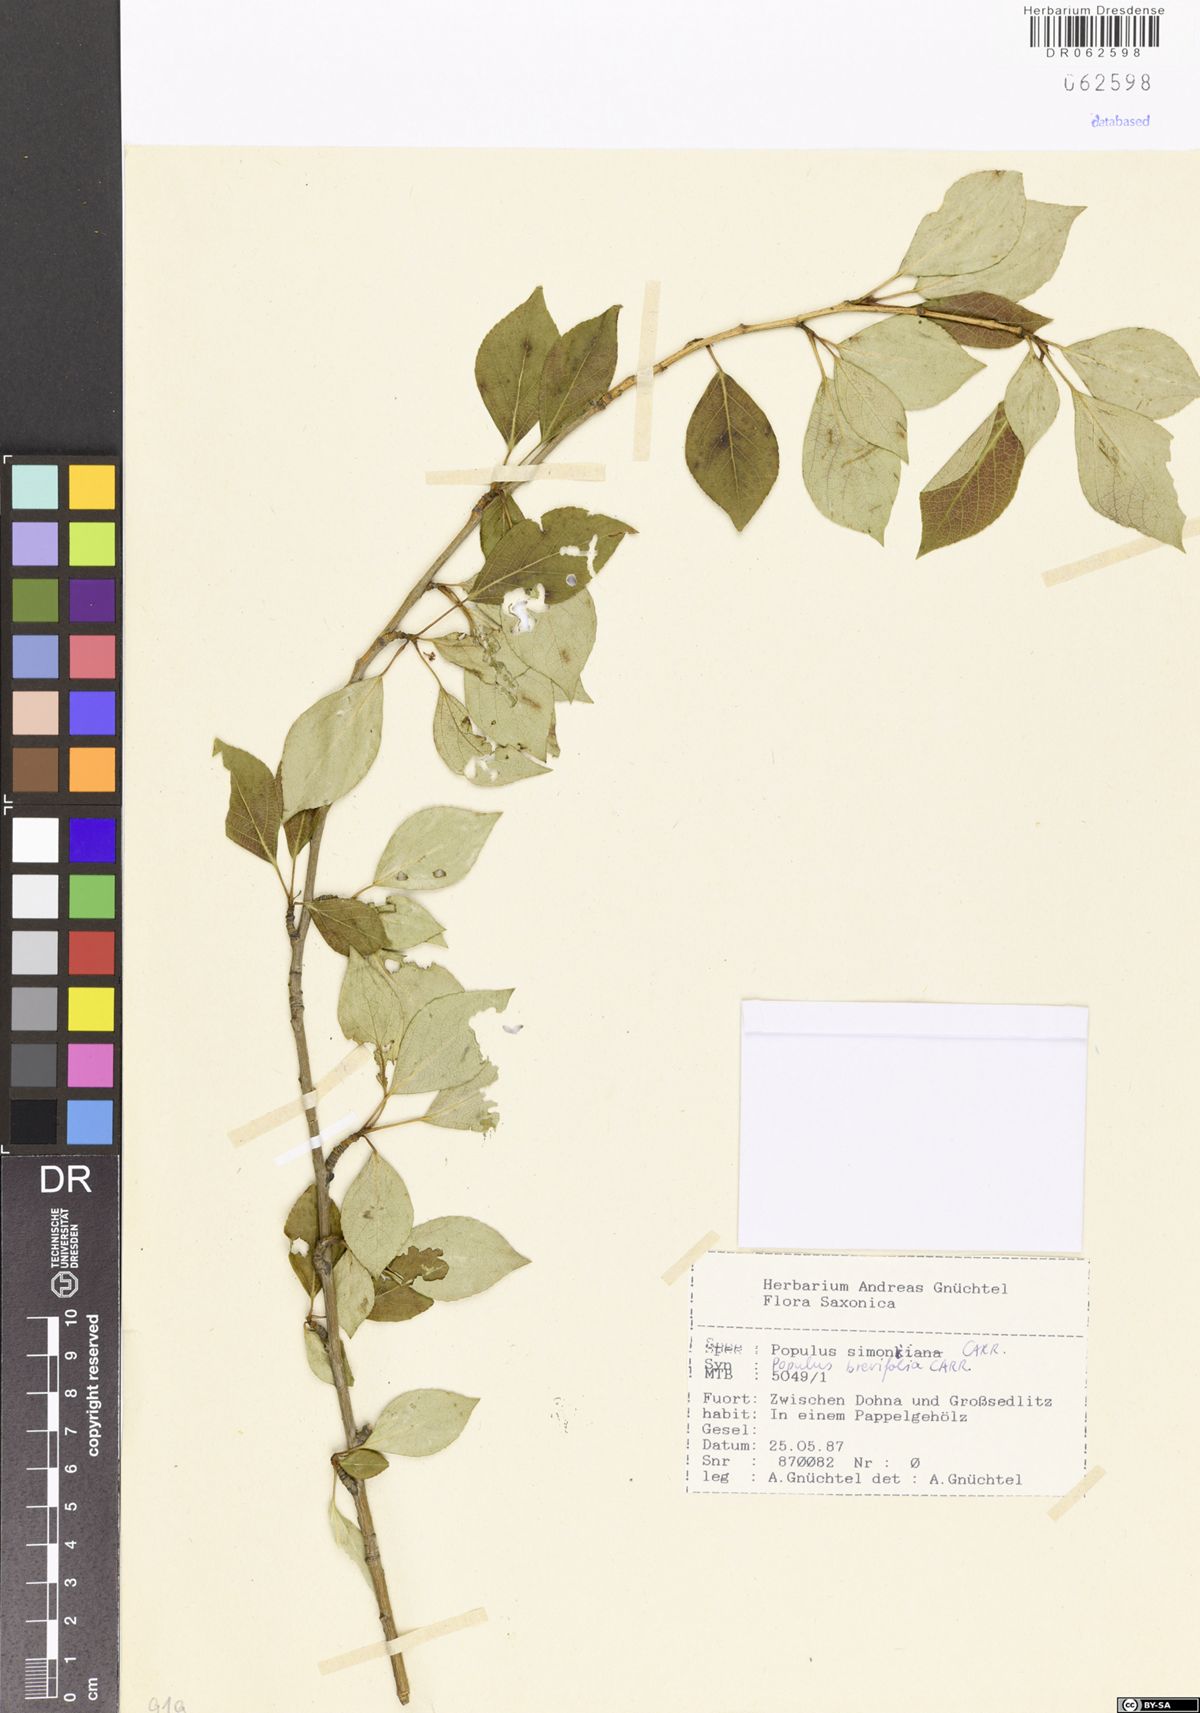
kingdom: Plantae
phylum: Tracheophyta
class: Magnoliopsida
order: Malpighiales
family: Salicaceae
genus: Populus
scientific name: Populus simonii
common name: Simon poplar
